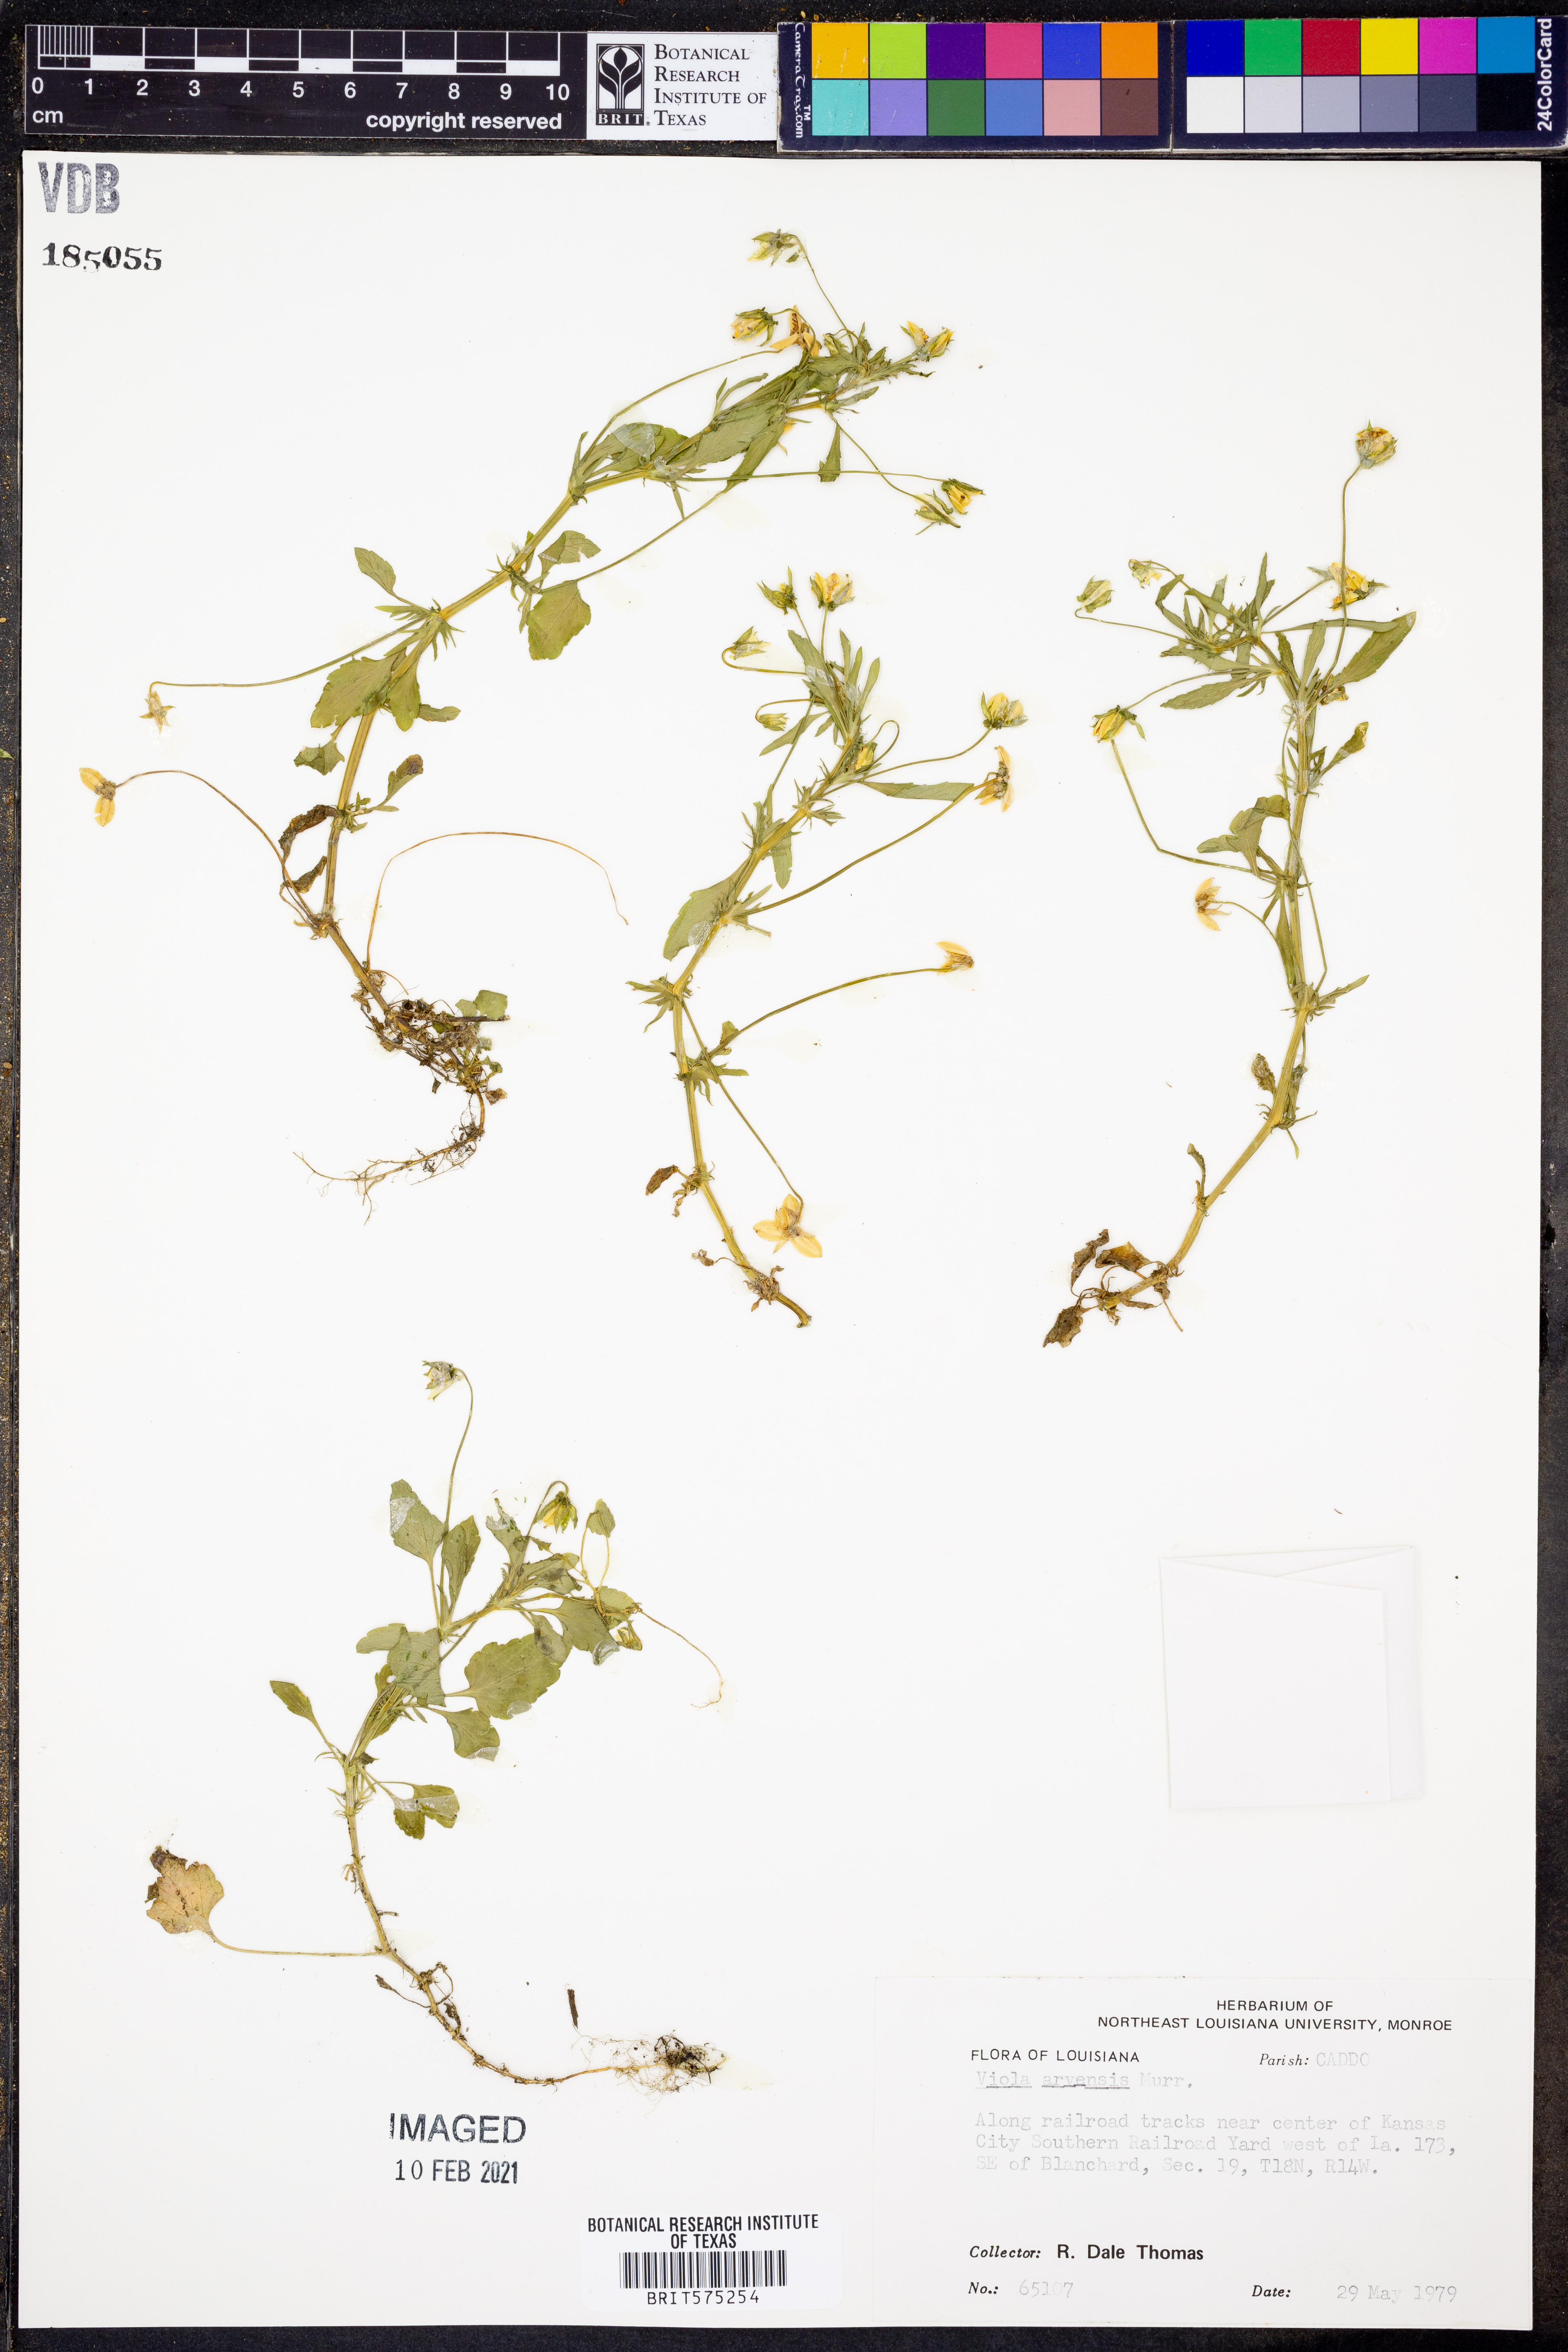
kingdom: Plantae
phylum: Tracheophyta
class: Magnoliopsida
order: Malpighiales
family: Violaceae
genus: Viola
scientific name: Viola arvensis
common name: Field pansy
